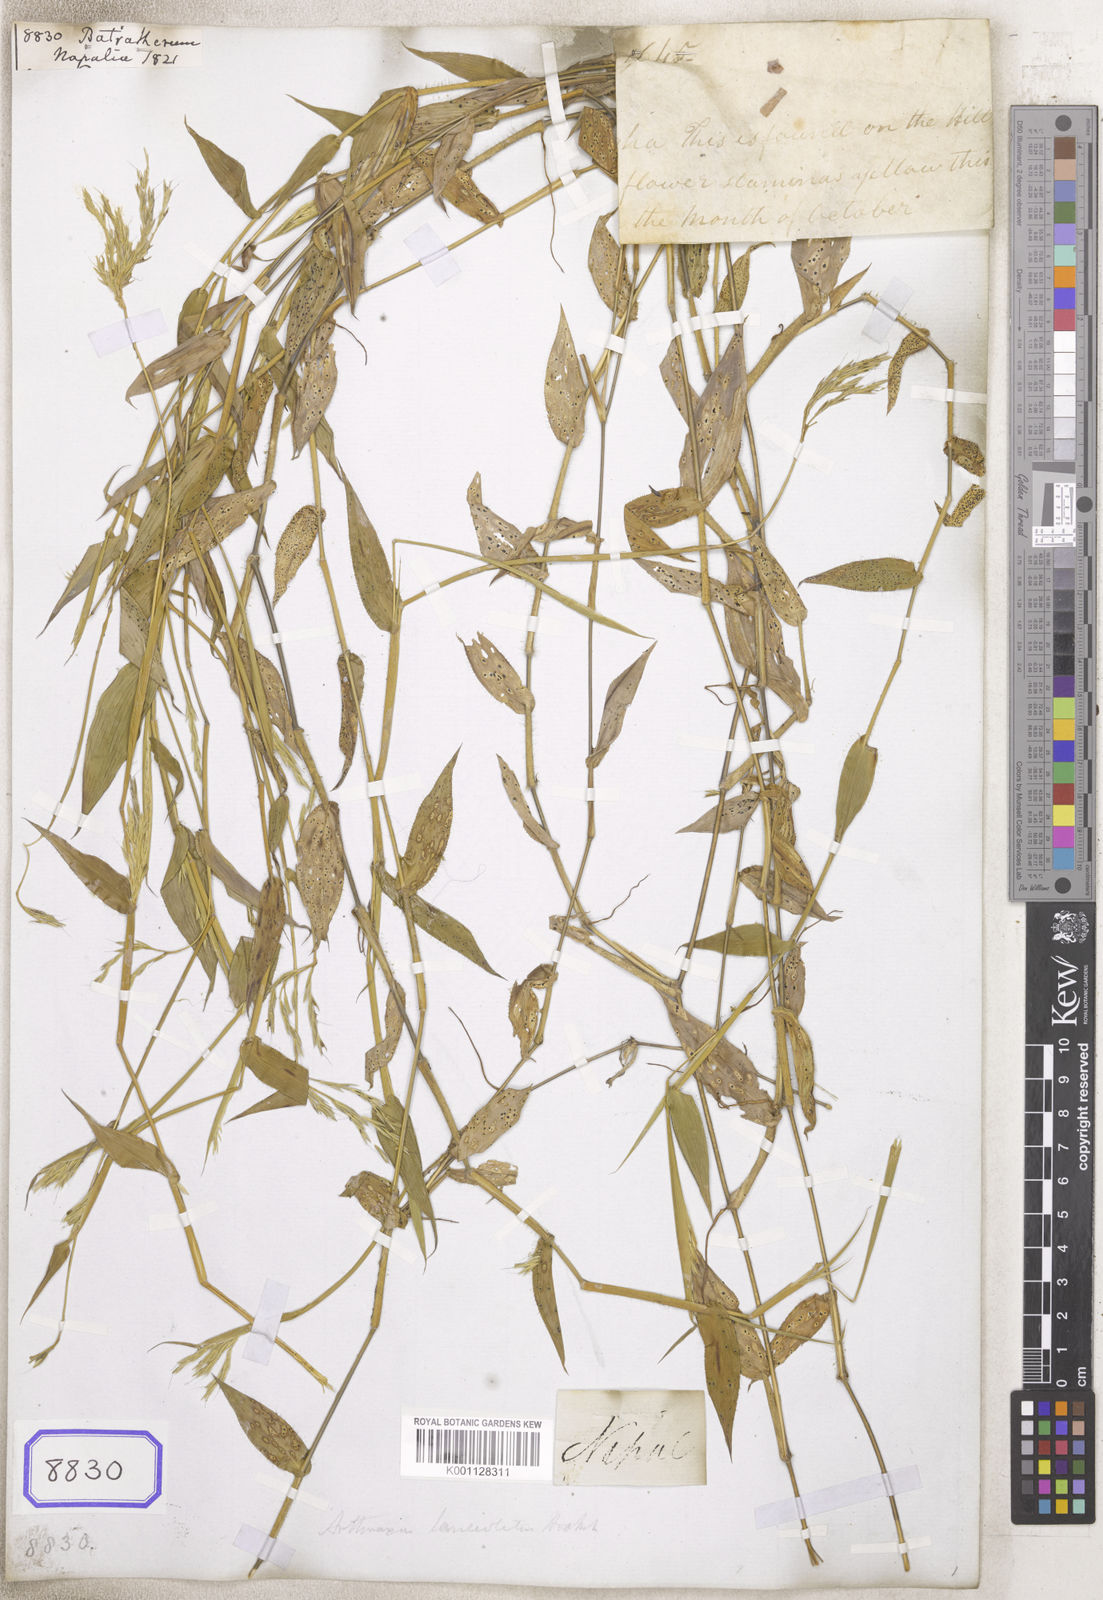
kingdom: Plantae
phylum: Tracheophyta
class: Liliopsida
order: Poales
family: Poaceae
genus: Arthraxon
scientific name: Arthraxon
